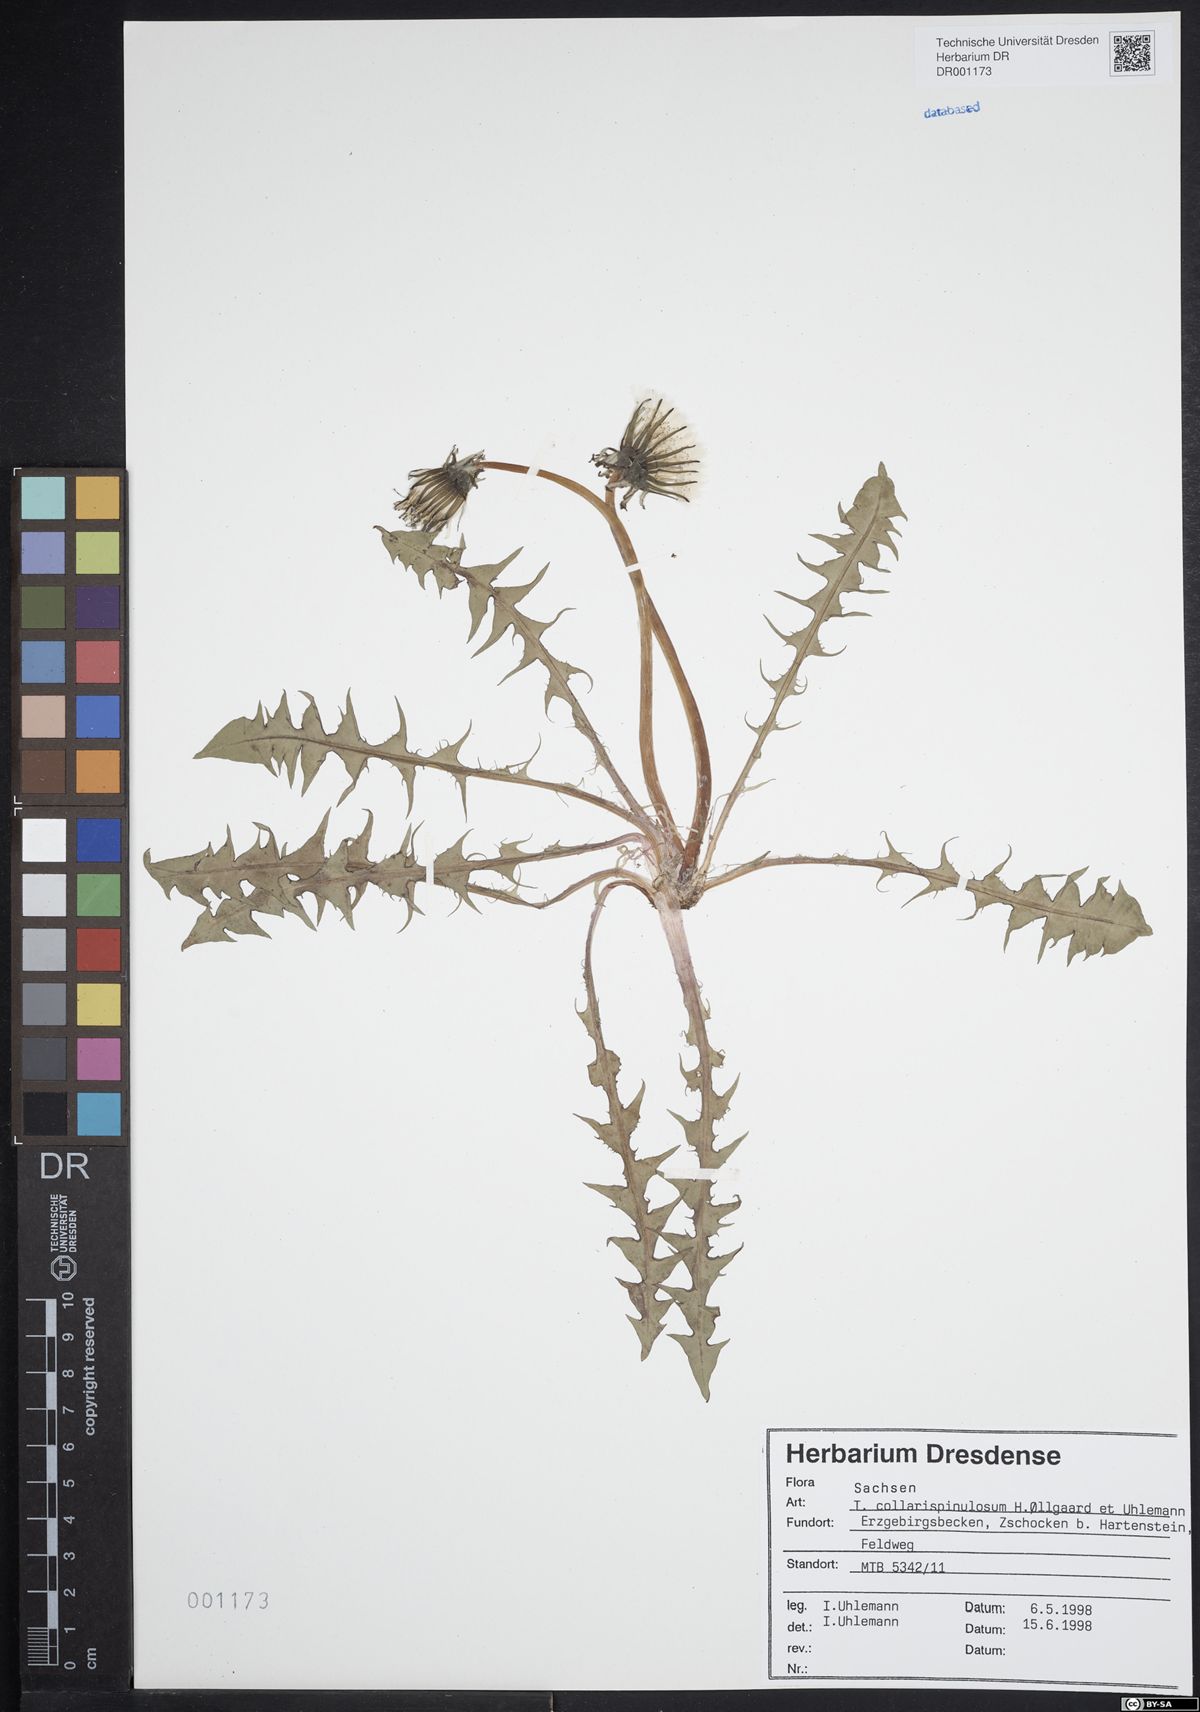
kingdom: Plantae
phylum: Tracheophyta
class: Magnoliopsida
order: Asterales
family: Asteraceae
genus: Taraxacum
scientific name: Taraxacum collarispinulosum
